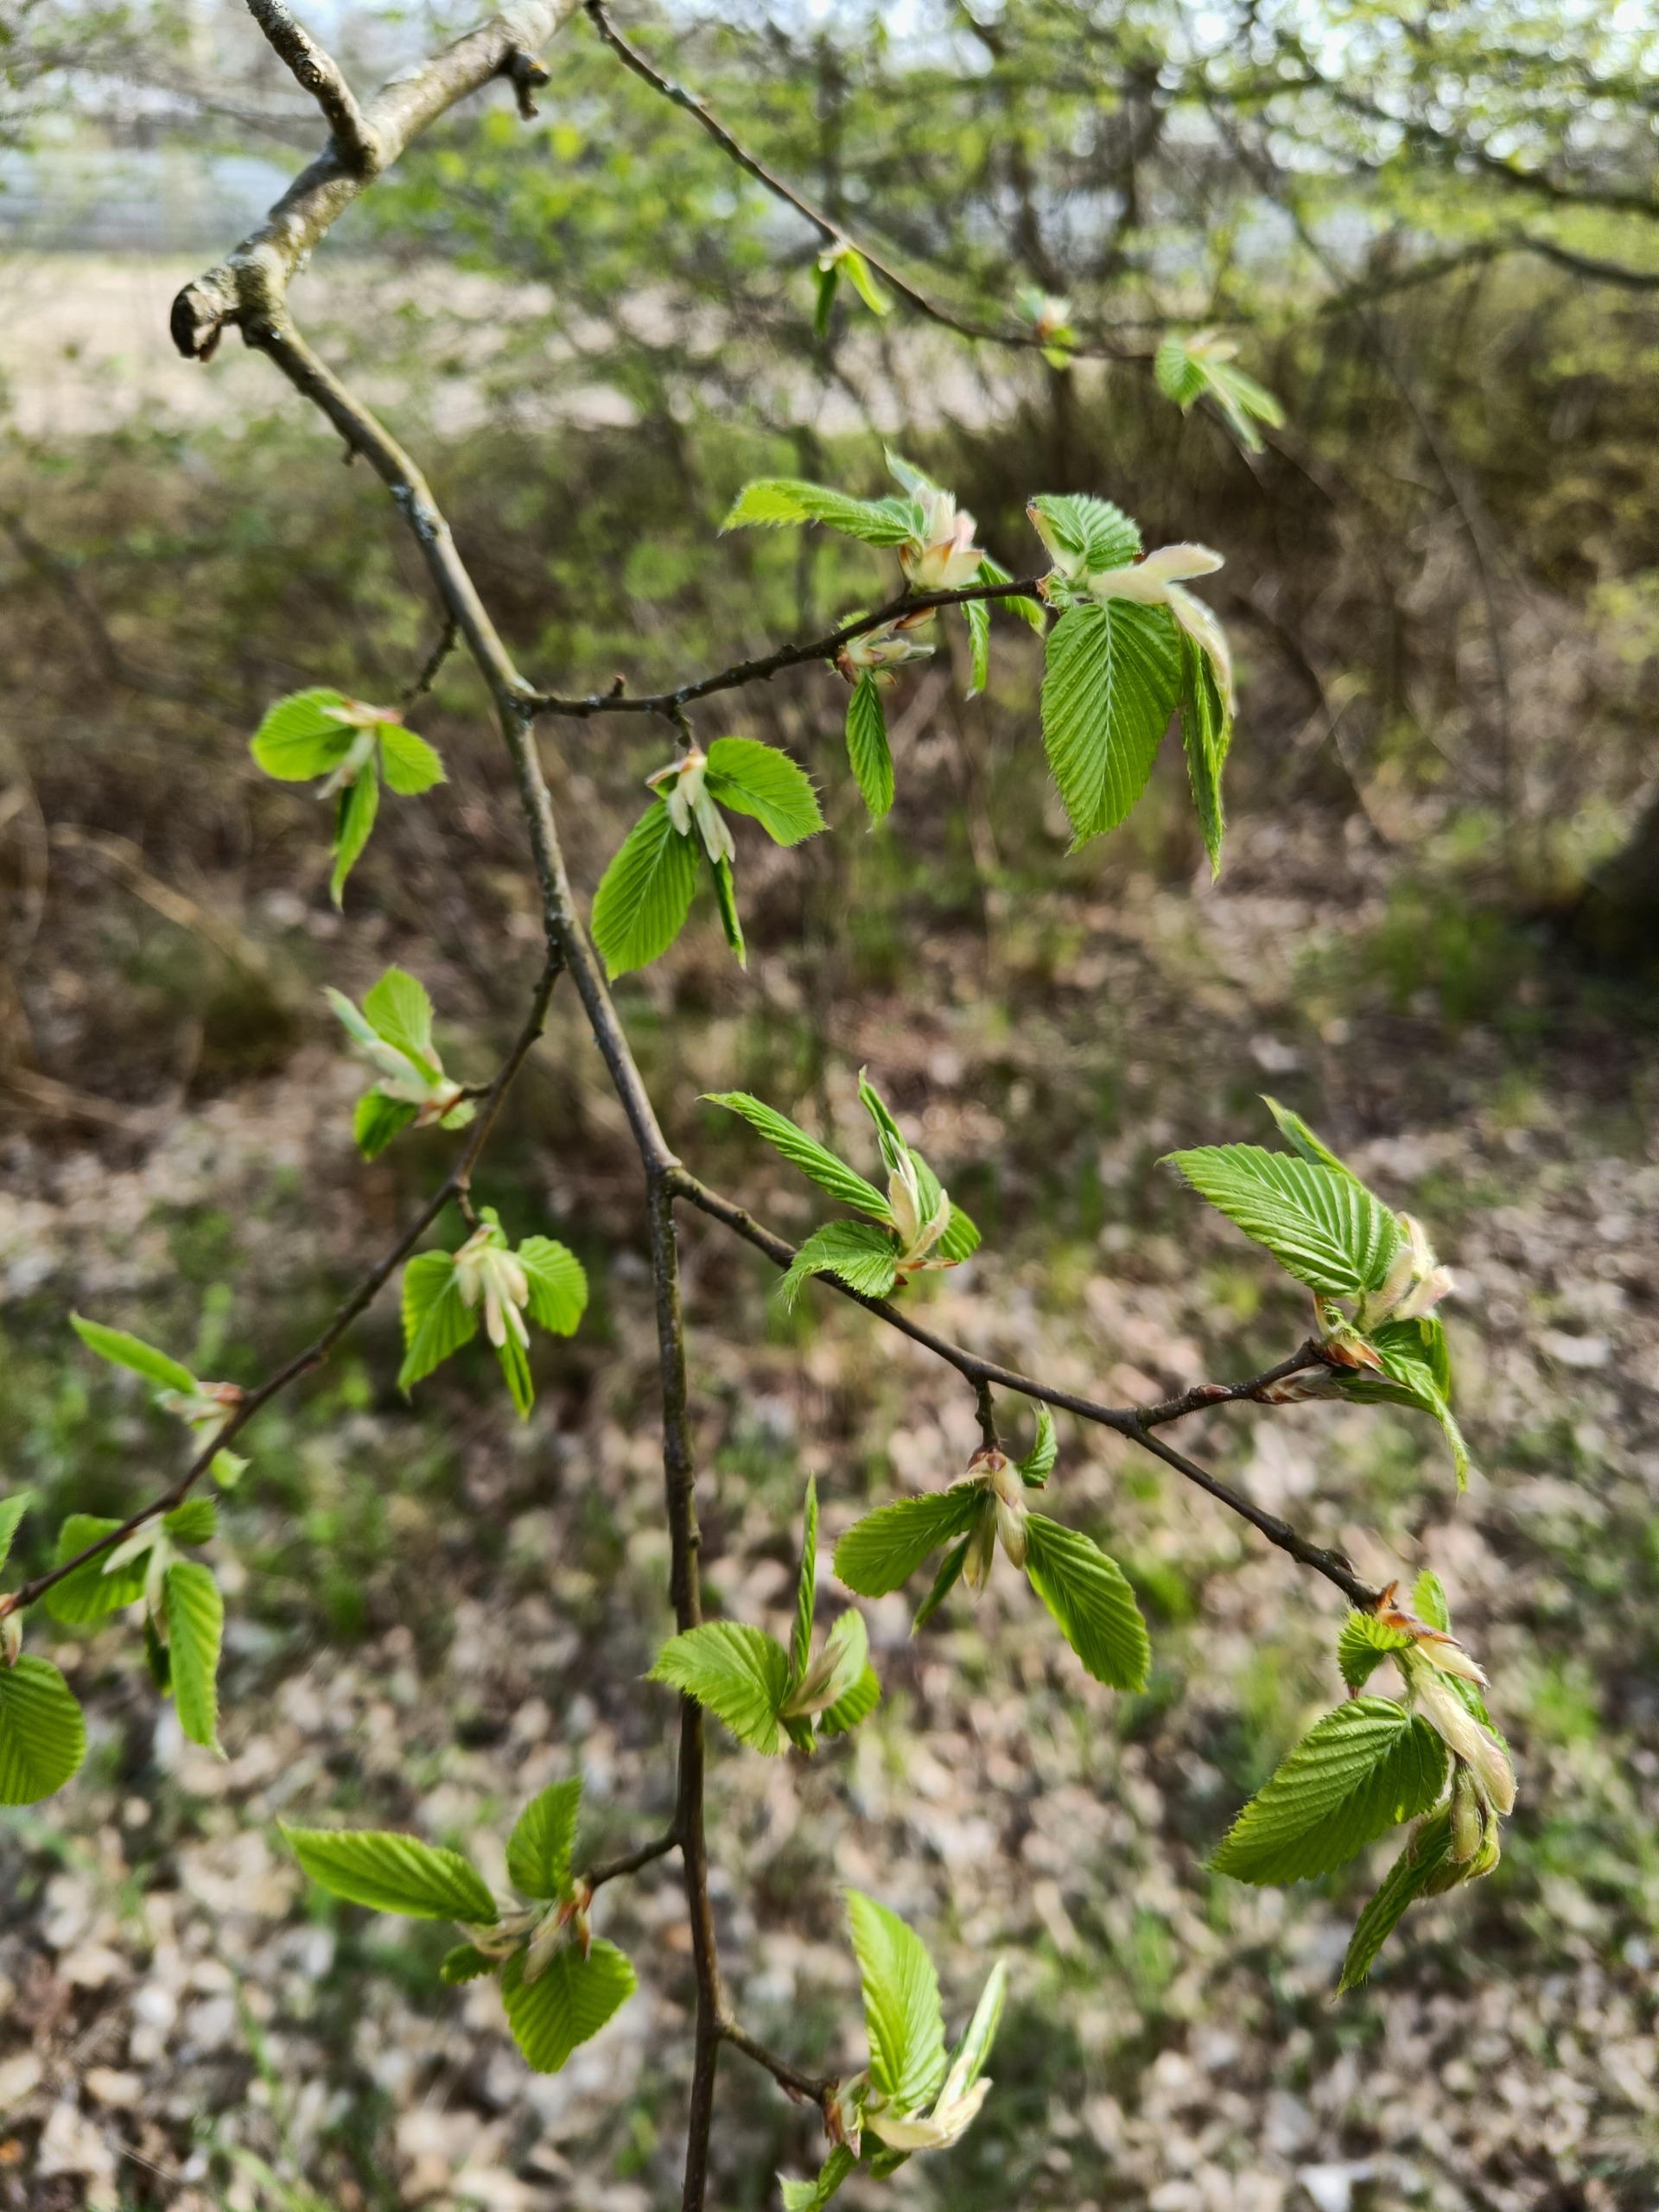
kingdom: Plantae
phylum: Tracheophyta
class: Magnoliopsida
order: Fagales
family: Betulaceae
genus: Carpinus
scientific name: Carpinus betulus
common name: Avnbøg
